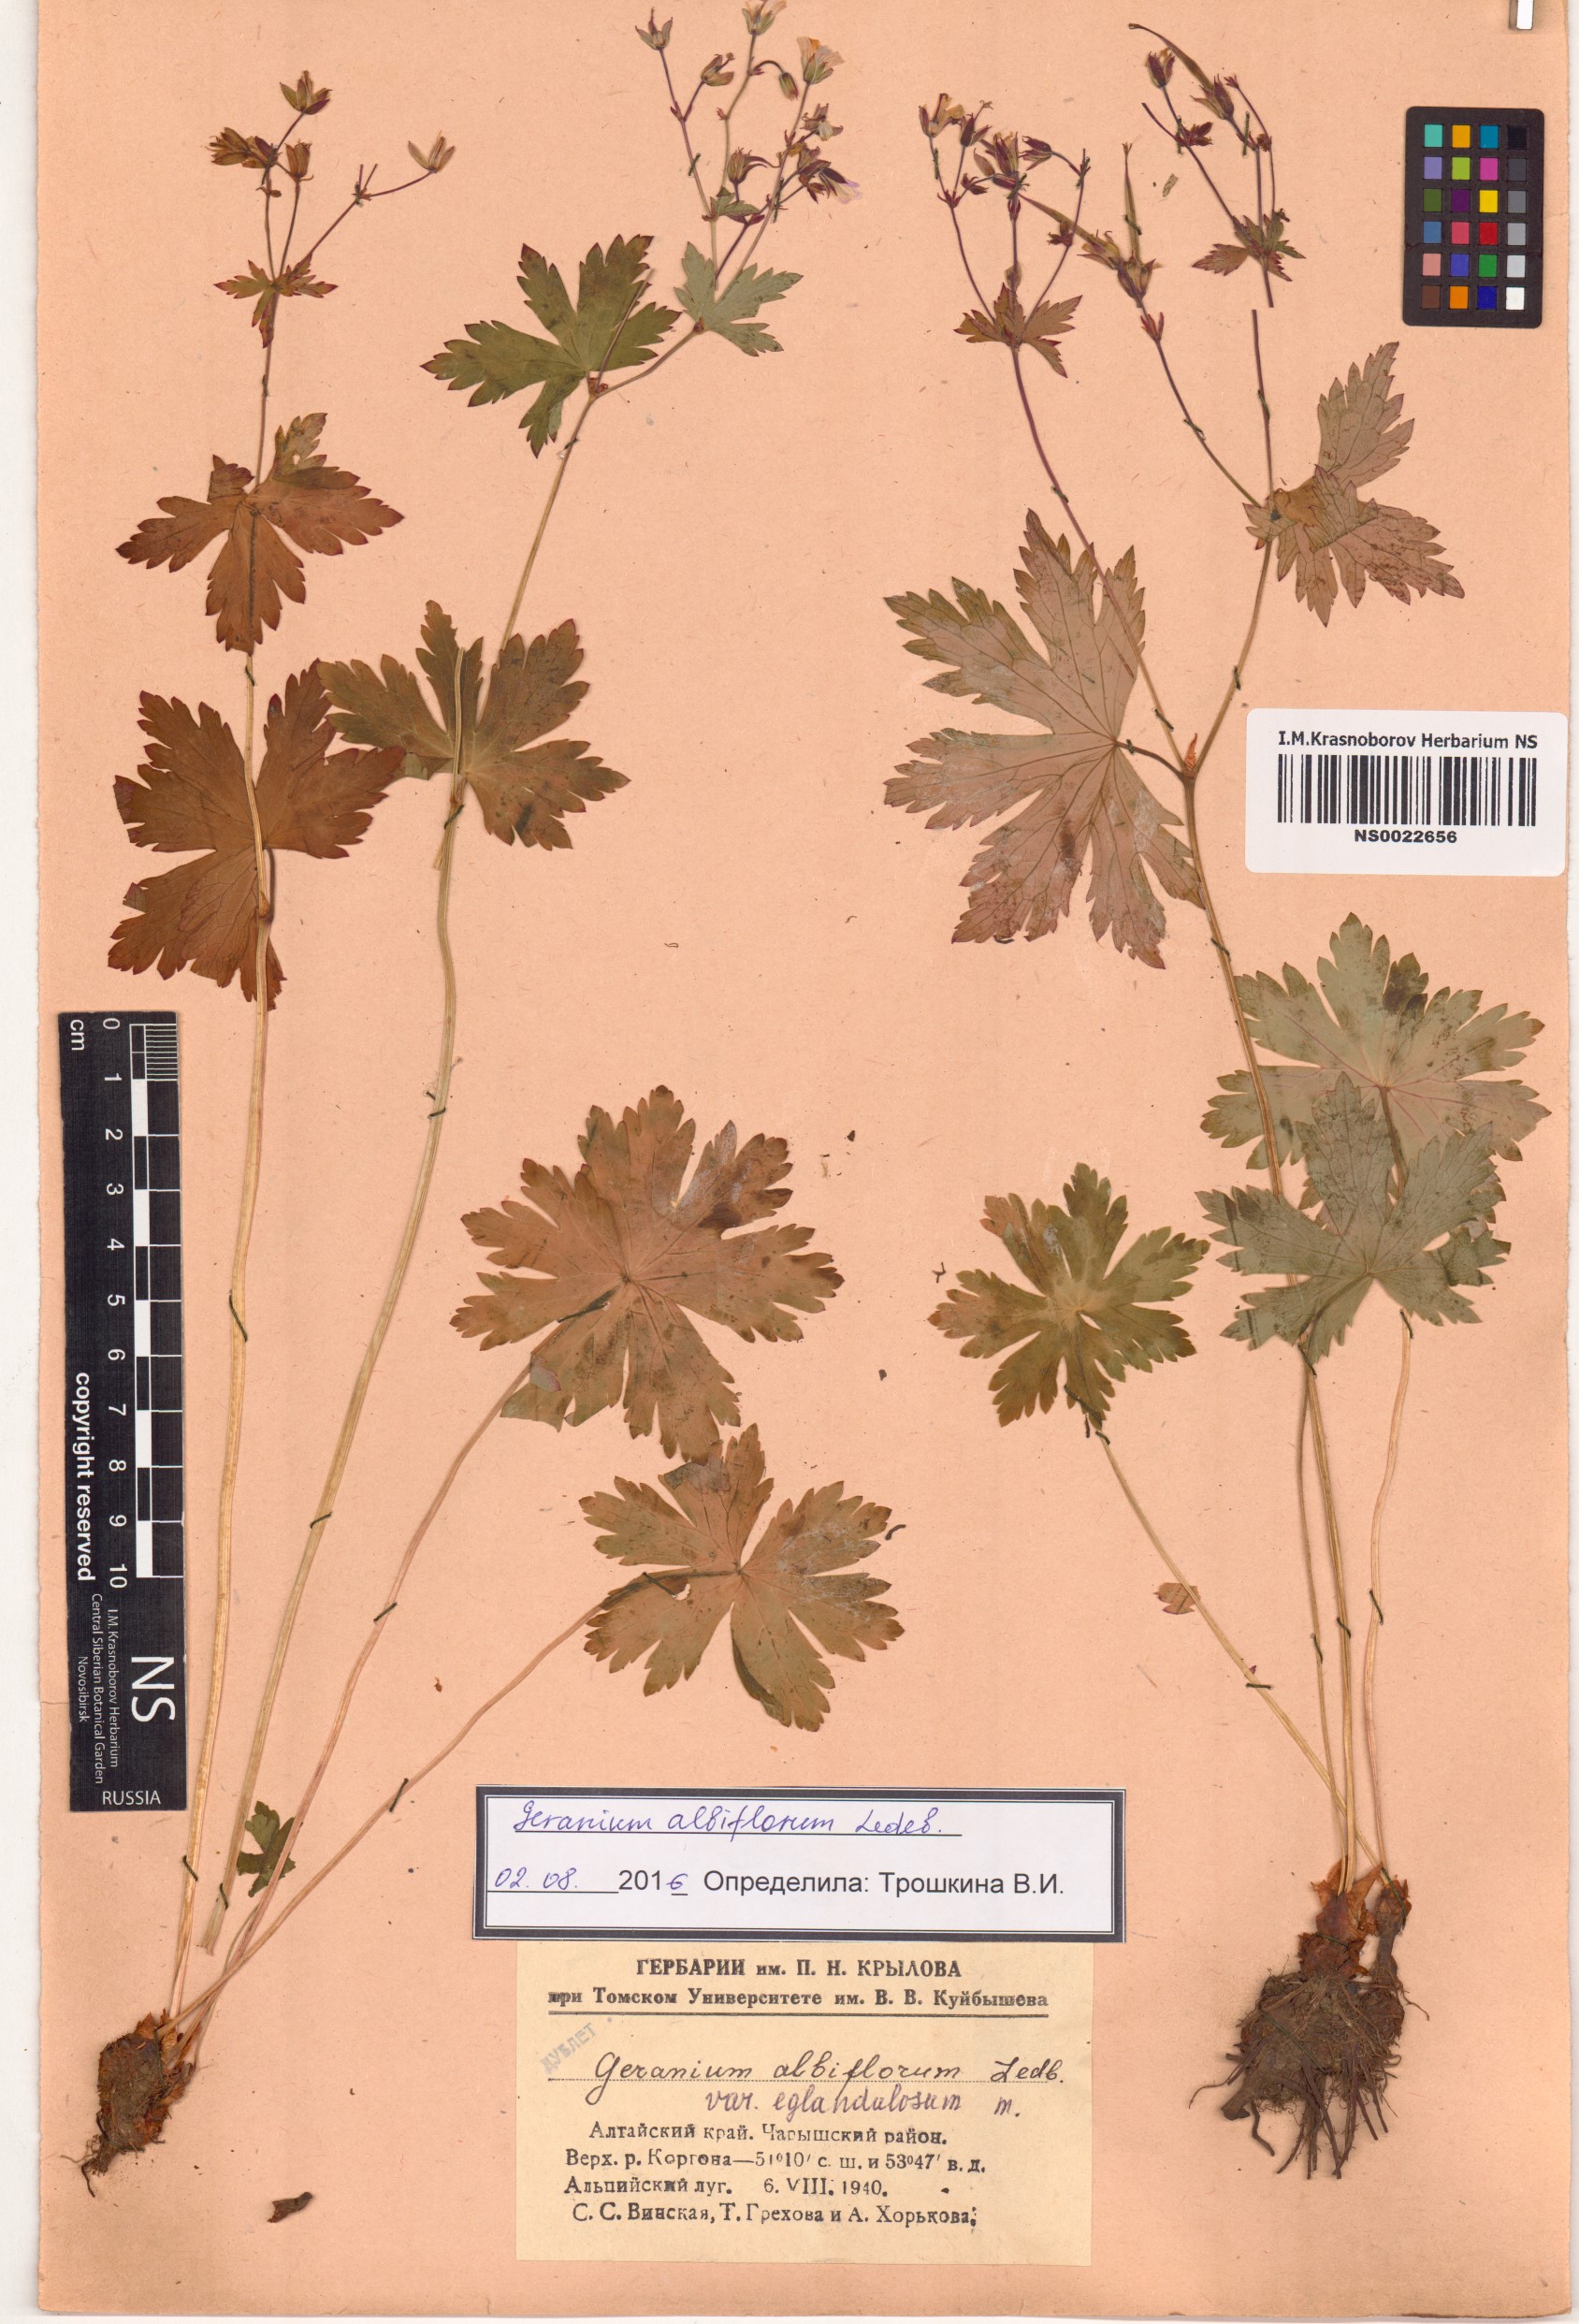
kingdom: Plantae
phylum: Tracheophyta
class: Magnoliopsida
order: Geraniales
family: Geraniaceae
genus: Geranium
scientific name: Geranium albiflorum
